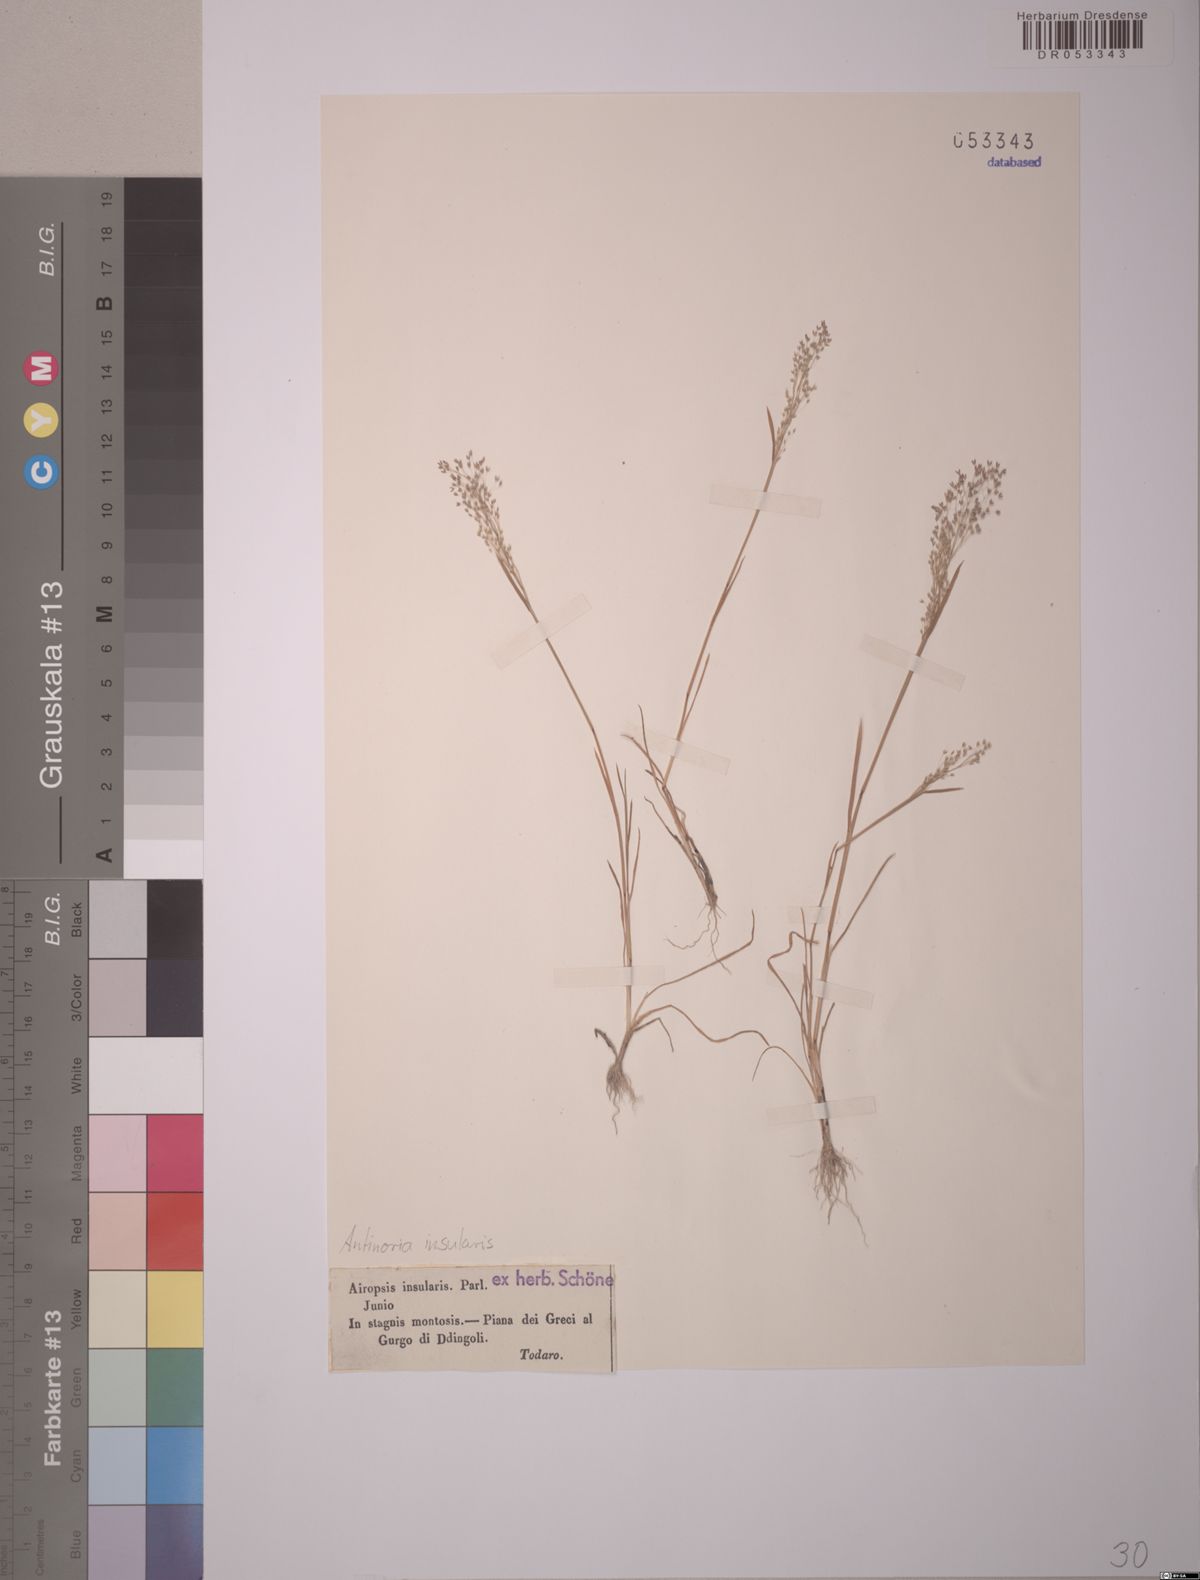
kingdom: Plantae
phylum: Tracheophyta
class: Liliopsida
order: Poales
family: Poaceae
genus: Antinoria
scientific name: Antinoria insularis
